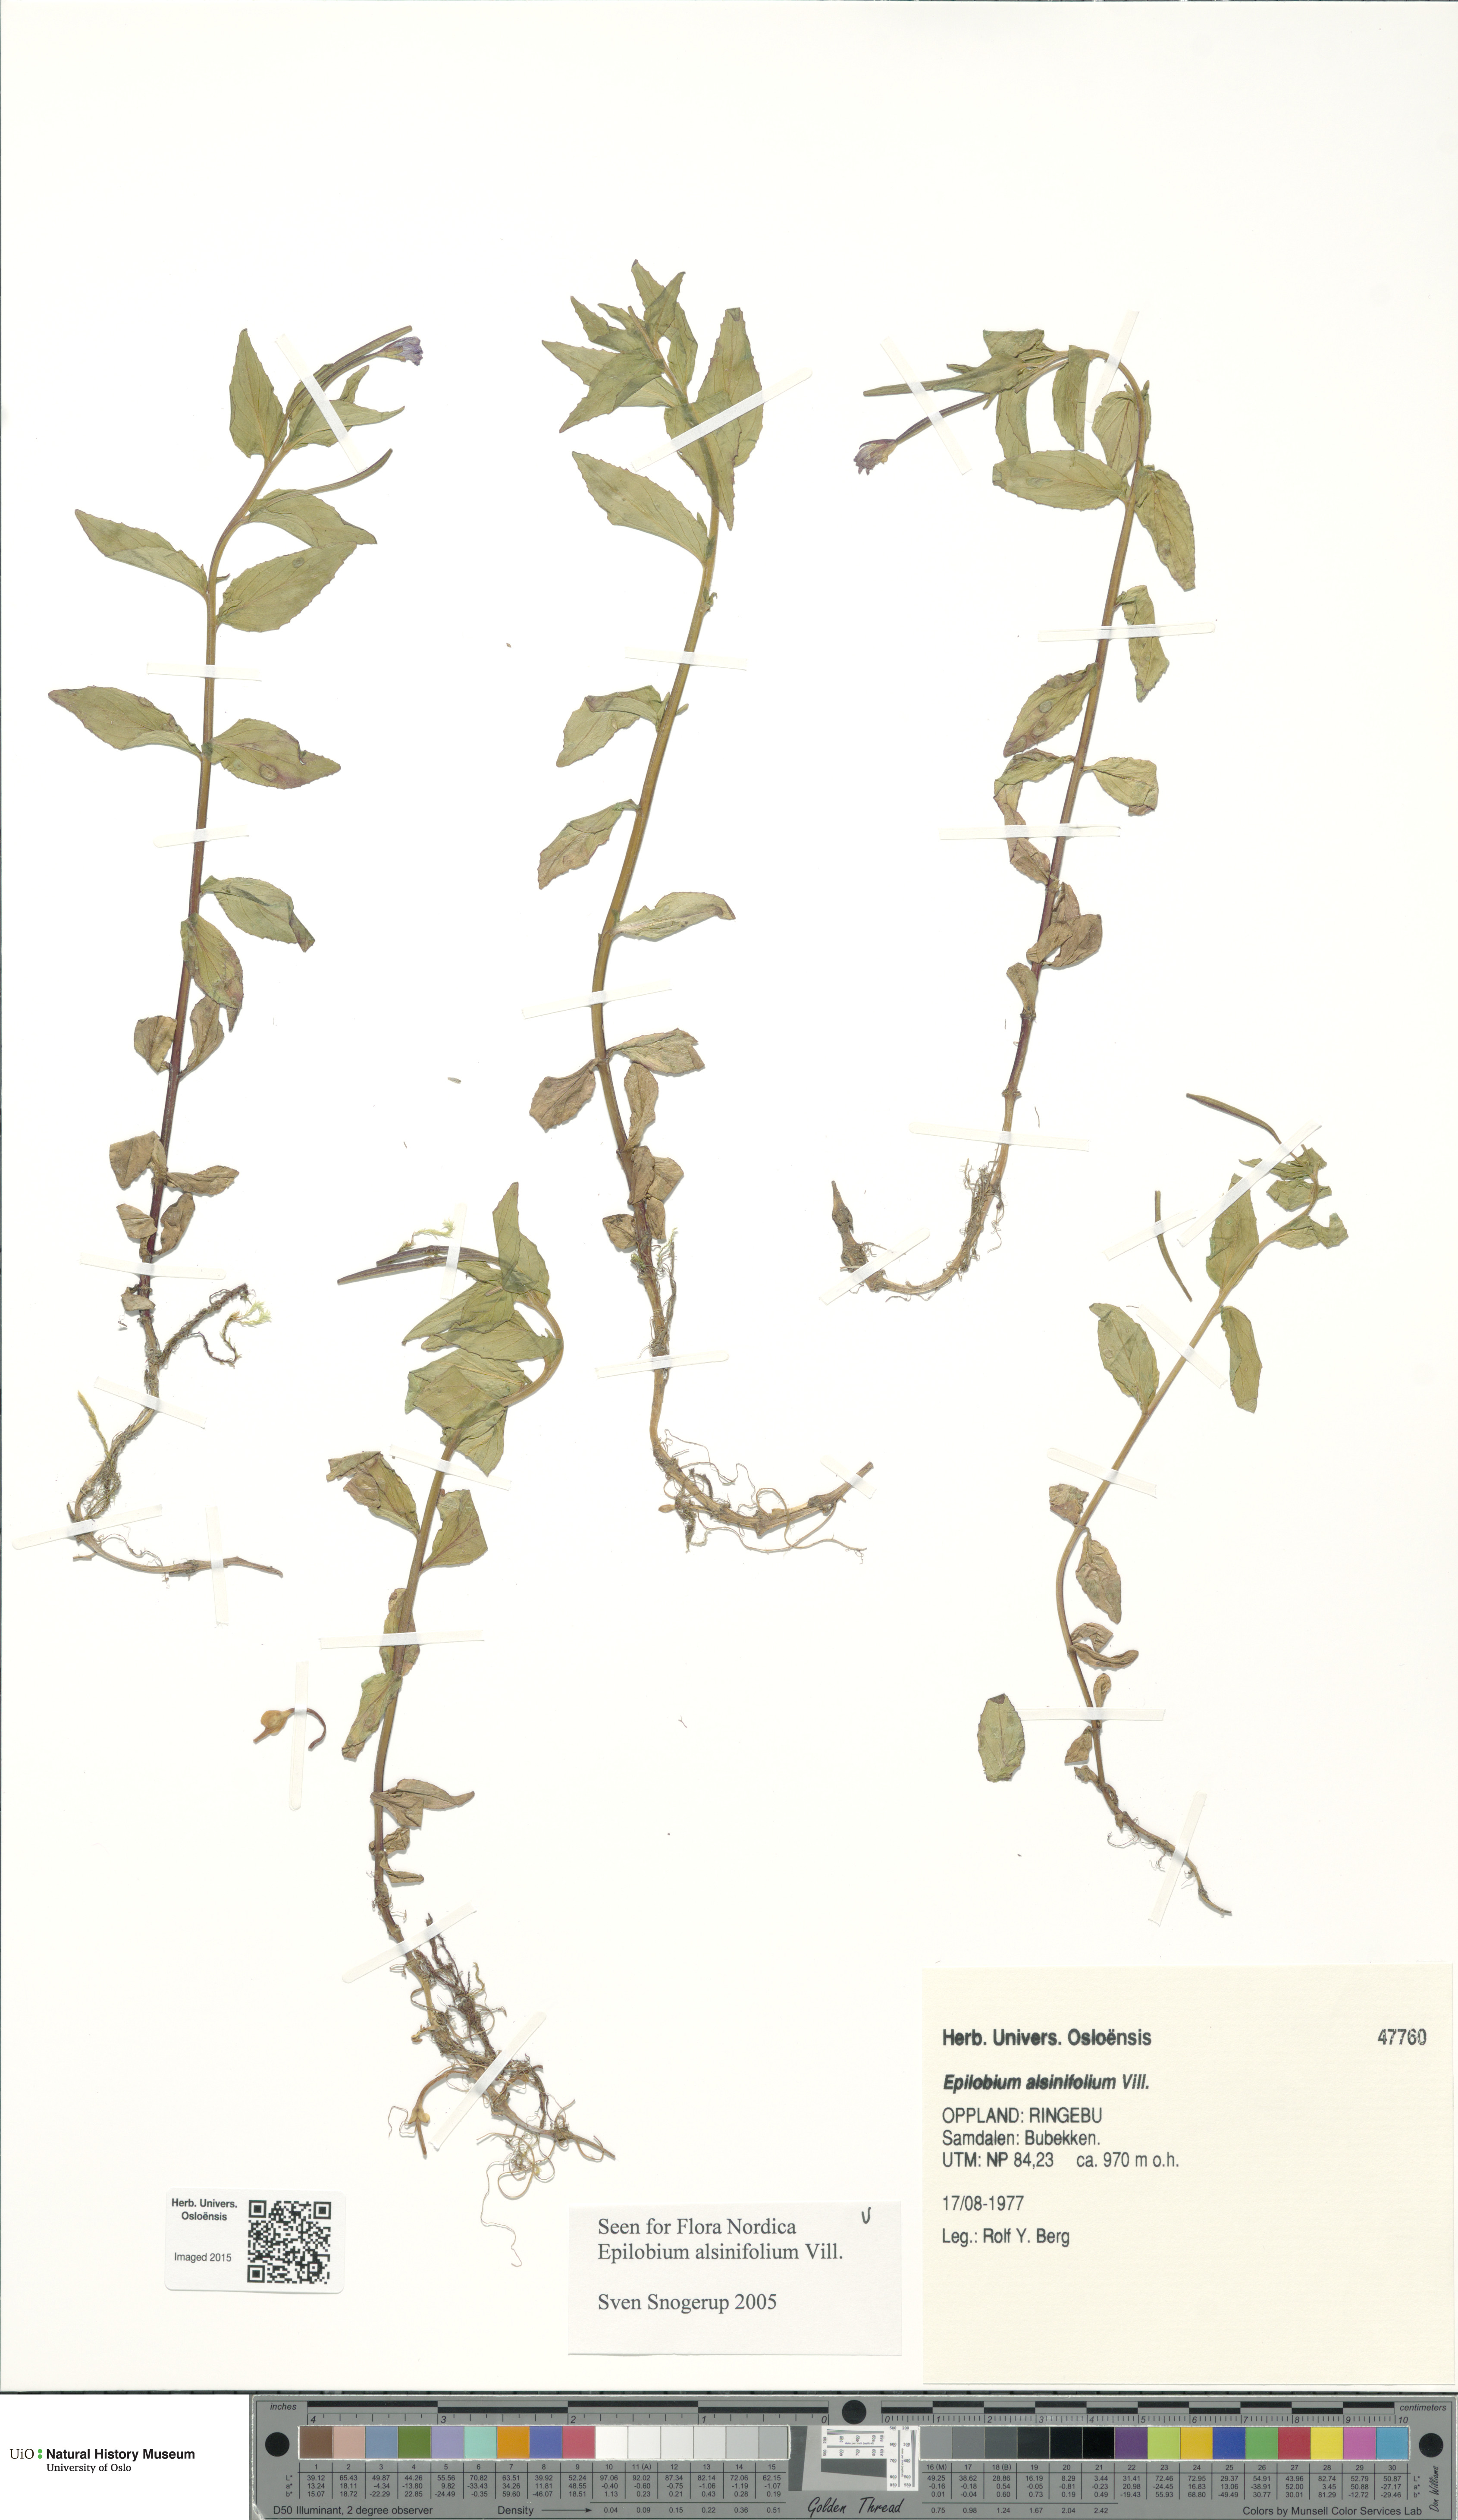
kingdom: Plantae
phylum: Tracheophyta
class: Magnoliopsida
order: Myrtales
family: Onagraceae
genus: Epilobium
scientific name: Epilobium alsinifolium
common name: Chickweed willowherb
